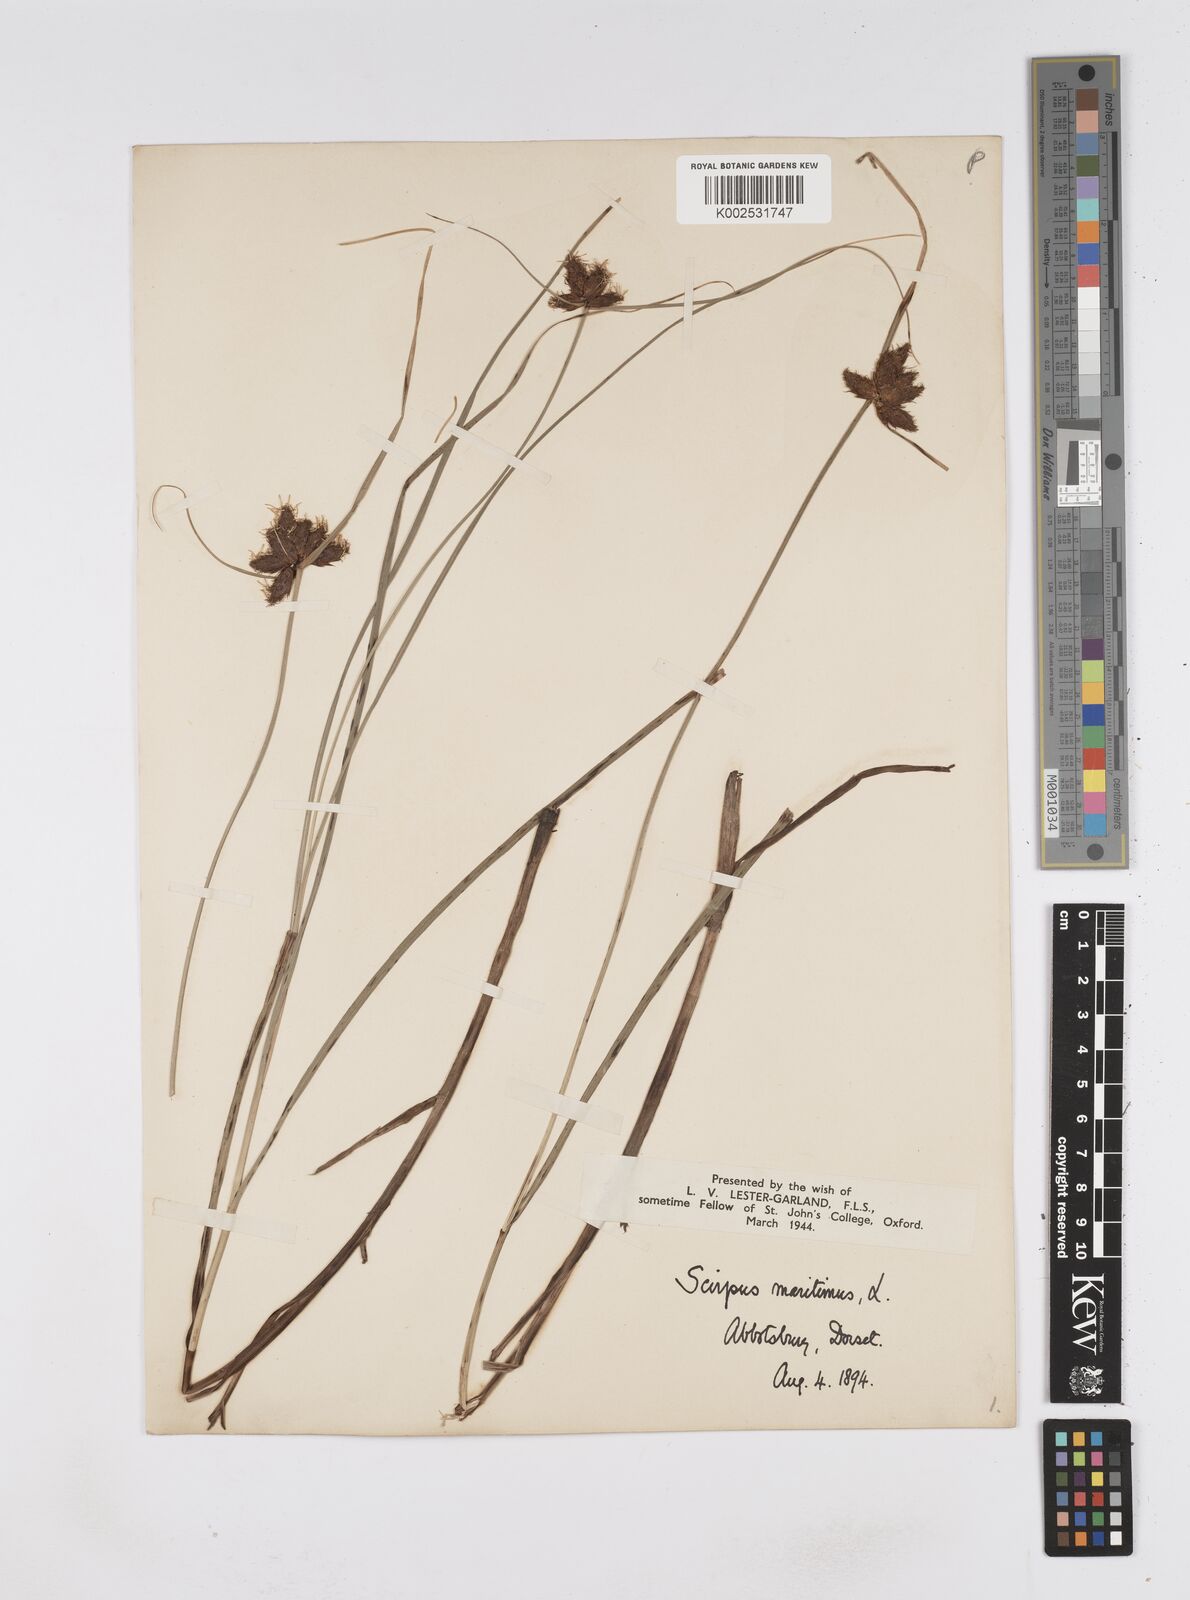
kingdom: Plantae
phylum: Tracheophyta
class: Liliopsida
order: Poales
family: Cyperaceae
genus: Bolboschoenus
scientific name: Bolboschoenus maritimus
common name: Sea club-rush
